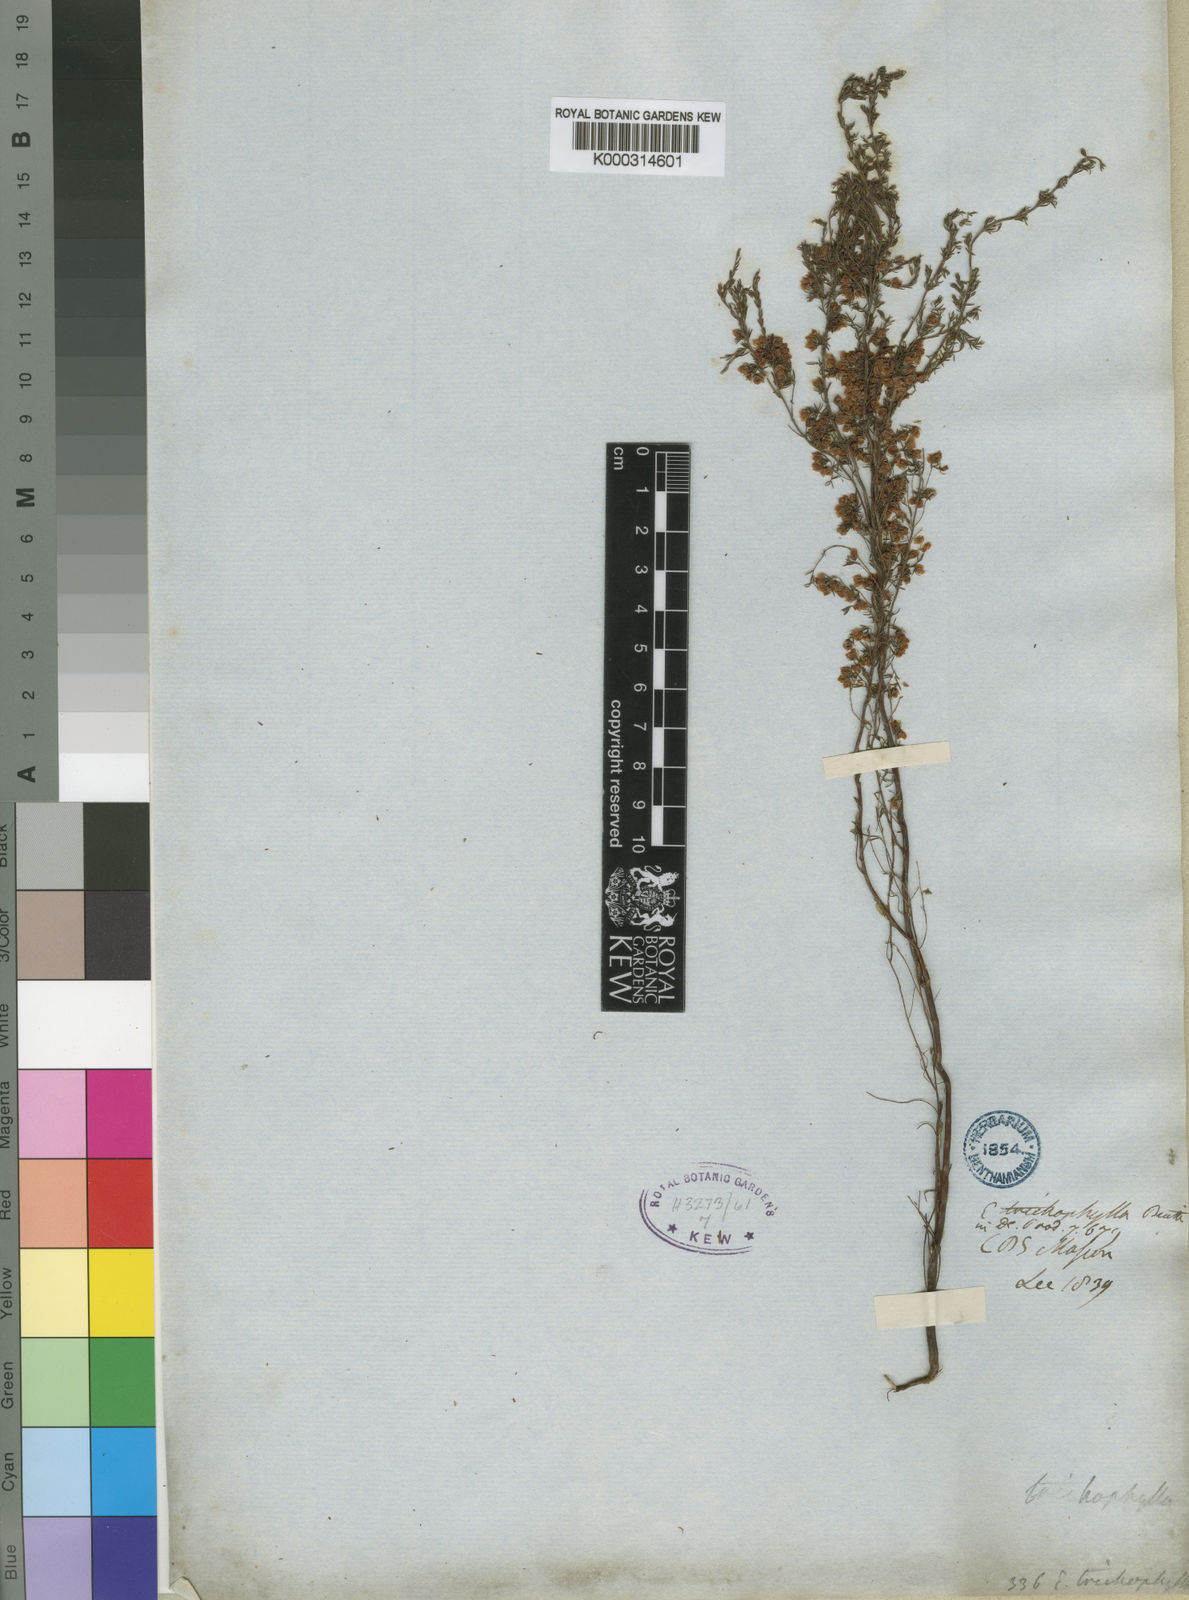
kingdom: Plantae
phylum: Tracheophyta
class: Magnoliopsida
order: Ericales
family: Ericaceae
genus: Erica
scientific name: Erica trichophylla
